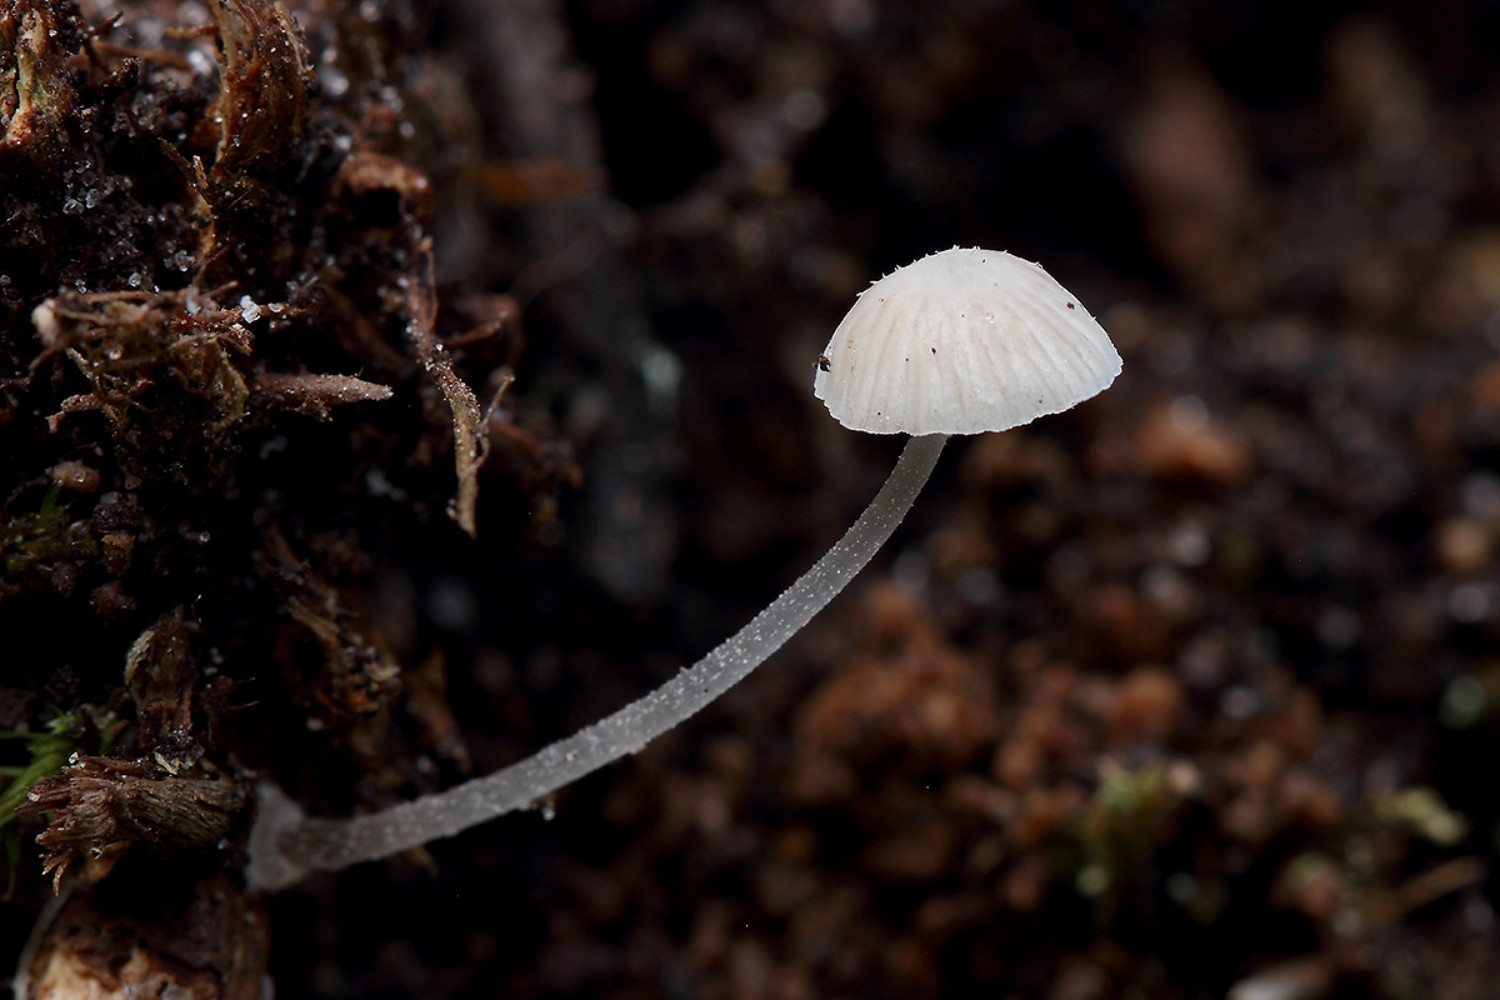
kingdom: Fungi
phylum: Basidiomycota
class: Agaricomycetes
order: Agaricales
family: Mycenaceae
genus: Mycena
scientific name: Mycena stylobates
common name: fureskivet huesvamp
